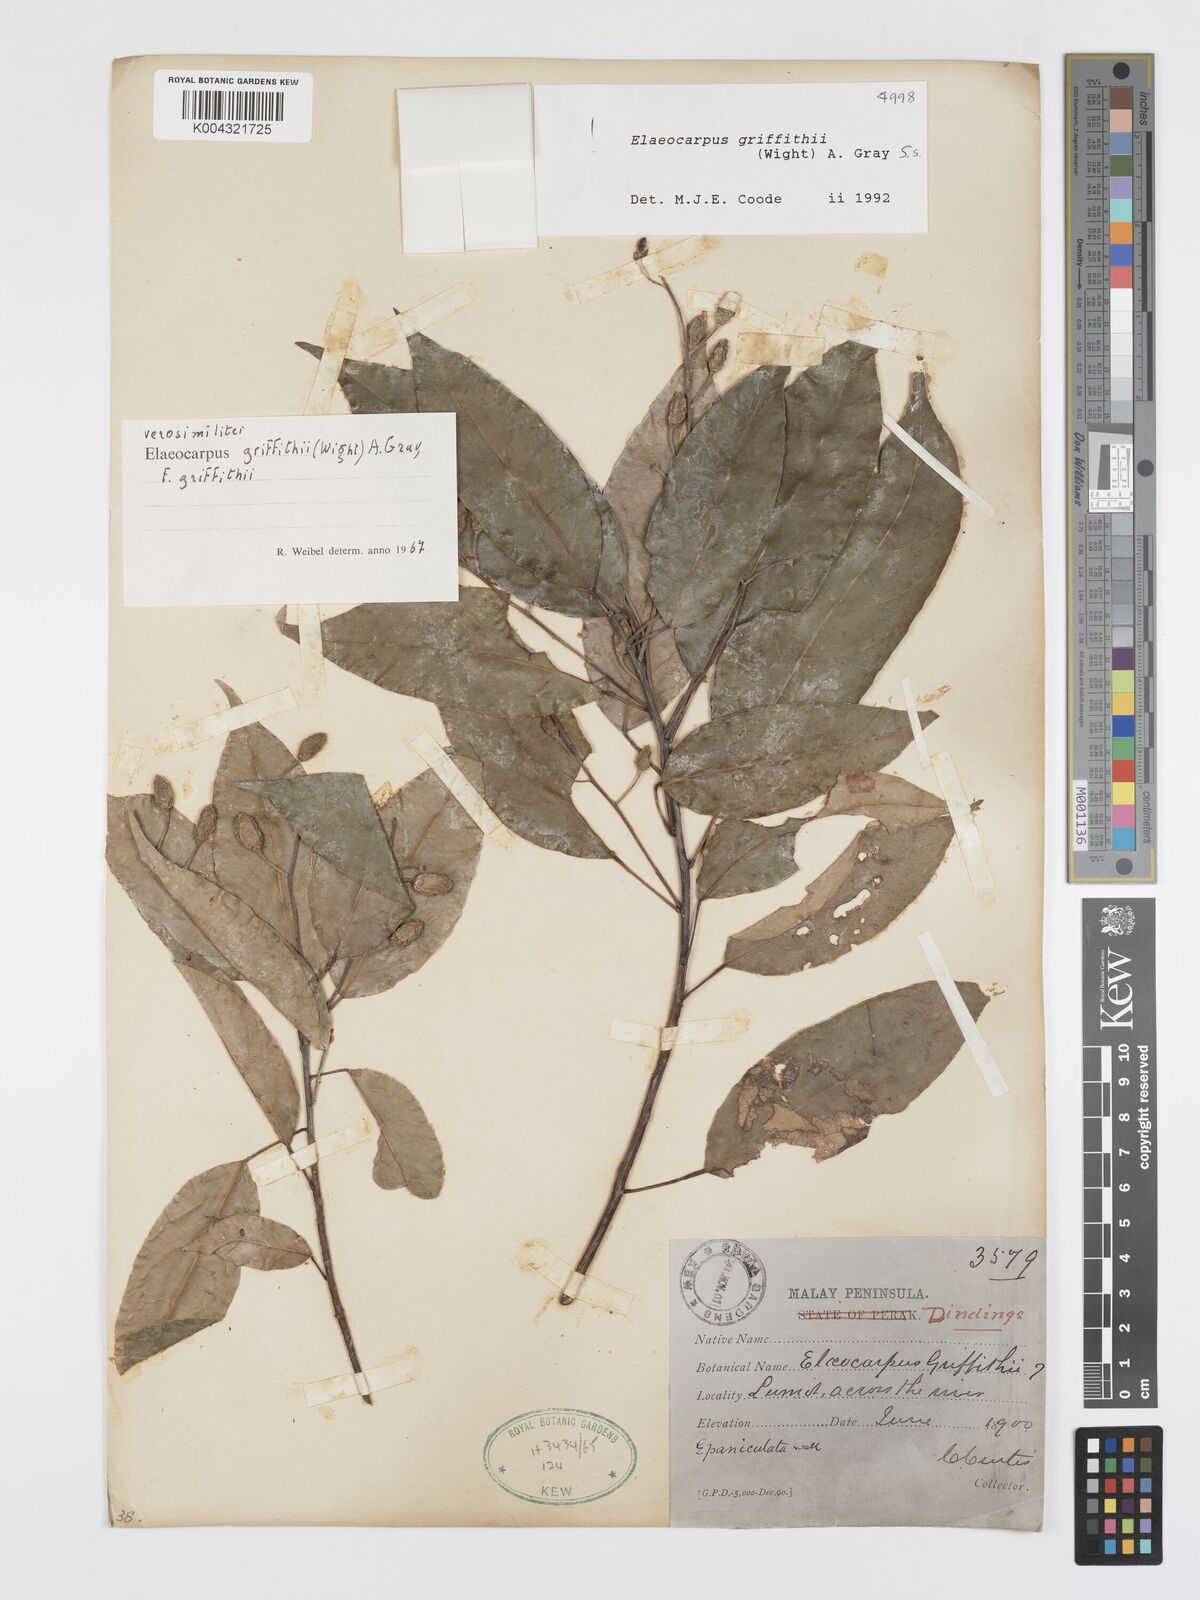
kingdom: Plantae
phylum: Tracheophyta
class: Magnoliopsida
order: Oxalidales
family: Elaeocarpaceae
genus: Elaeocarpus
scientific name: Elaeocarpus griffithii
